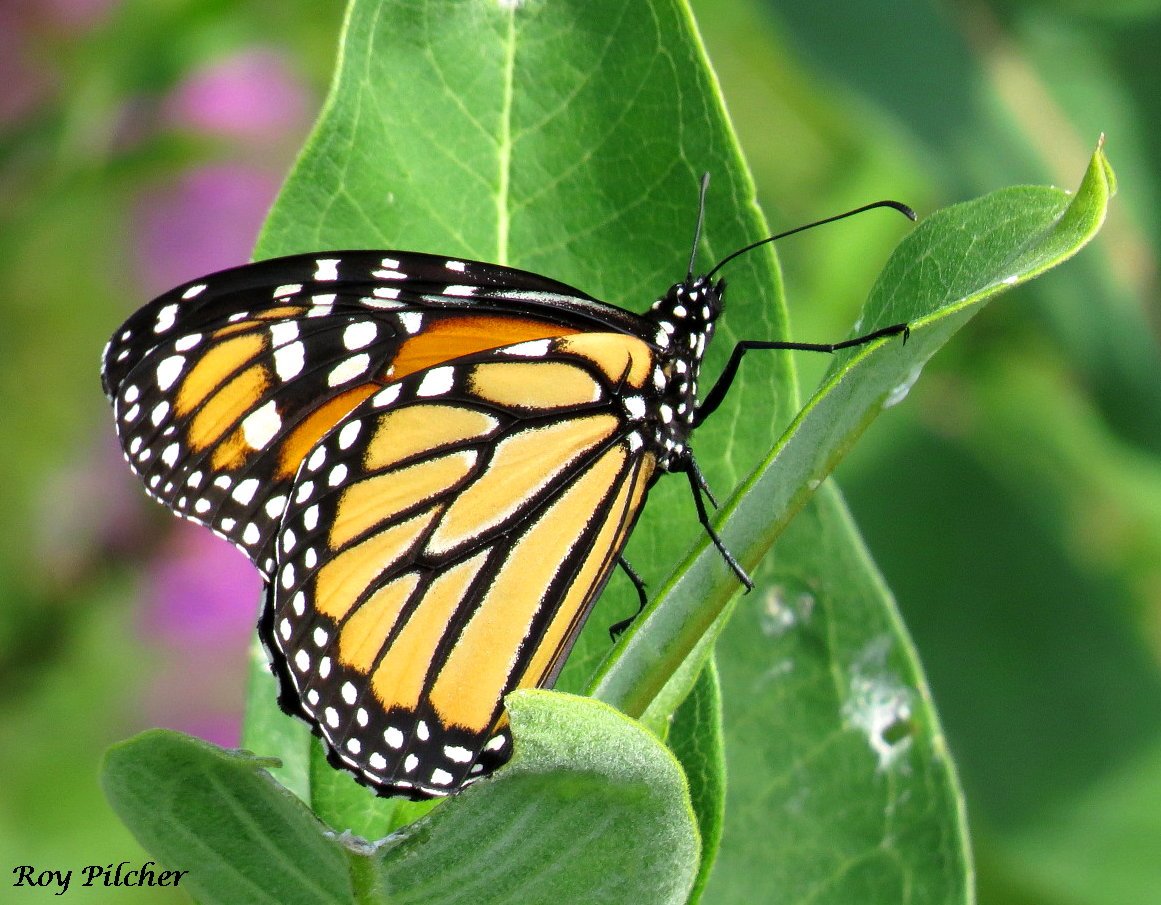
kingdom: Animalia
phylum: Arthropoda
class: Insecta
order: Lepidoptera
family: Nymphalidae
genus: Danaus
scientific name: Danaus plexippus
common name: Monarch
